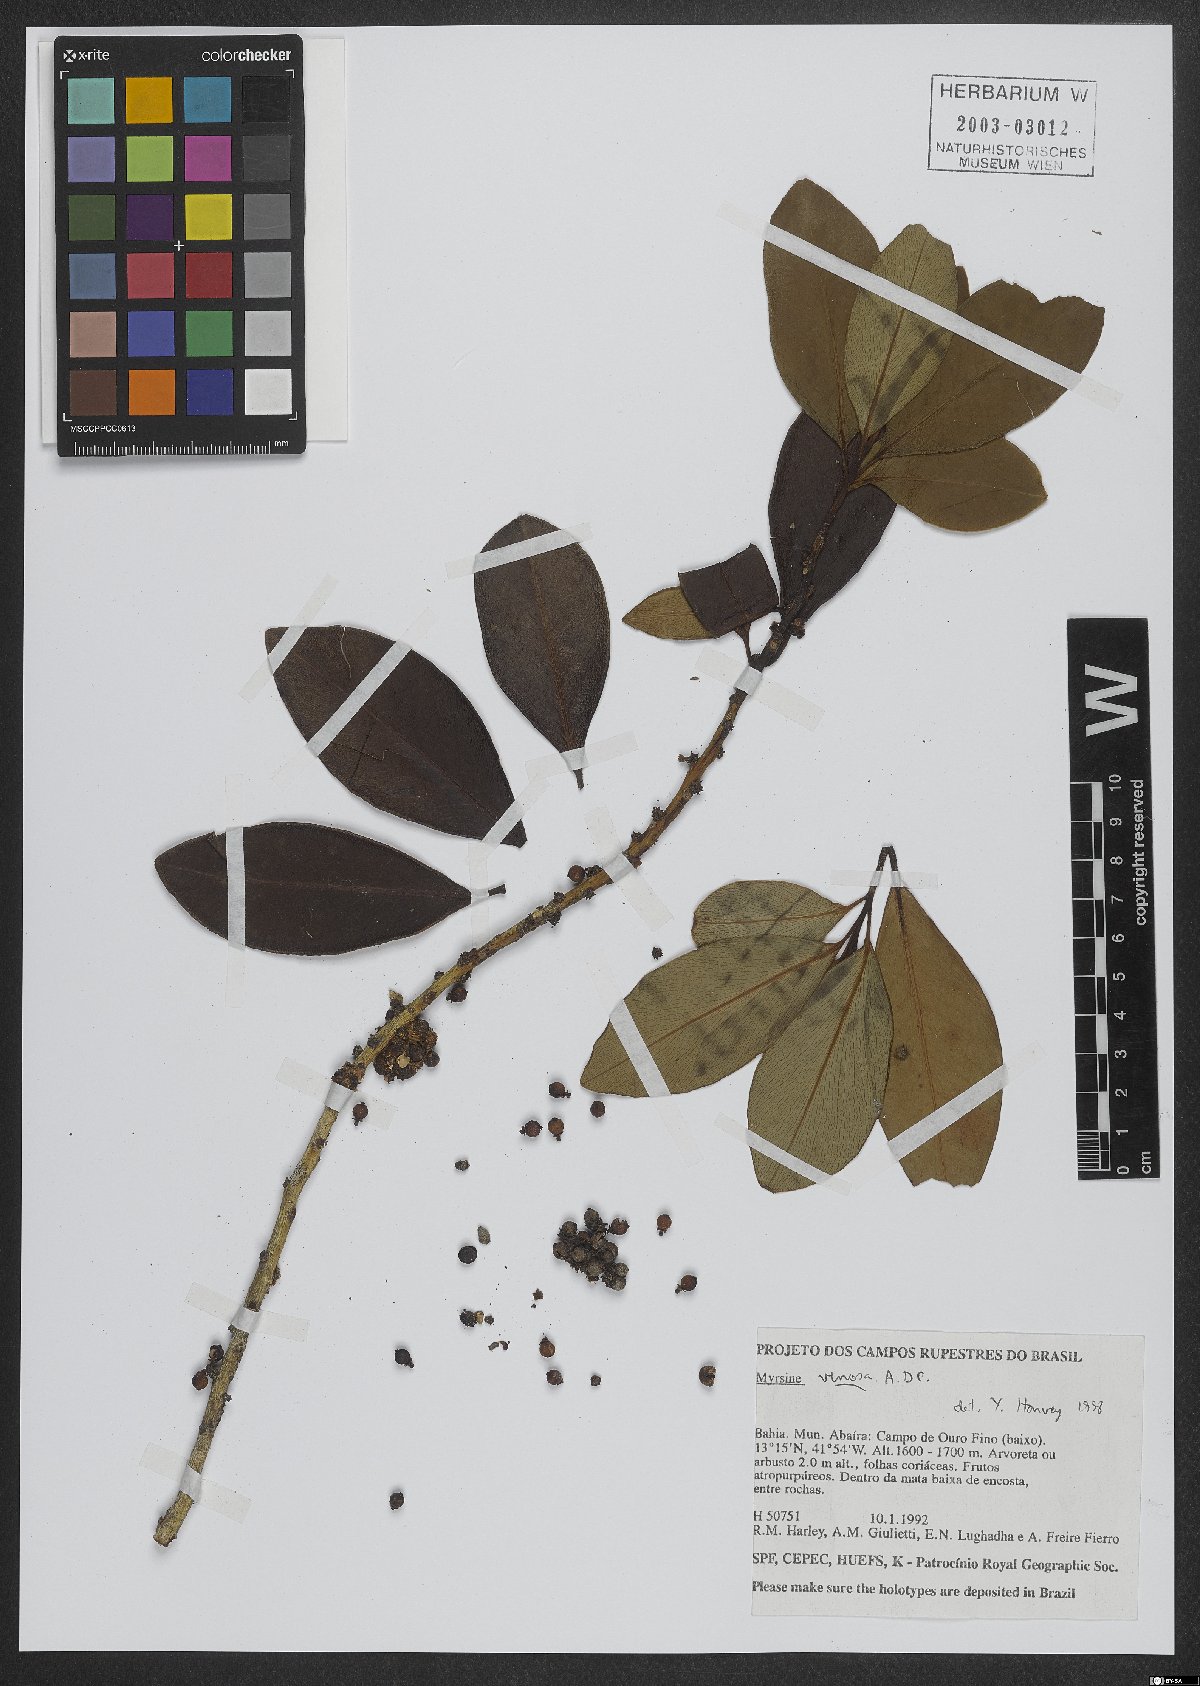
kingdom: Plantae
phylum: Tracheophyta
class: Magnoliopsida
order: Ericales
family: Primulaceae
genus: Myrsine
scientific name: Myrsine venosa
